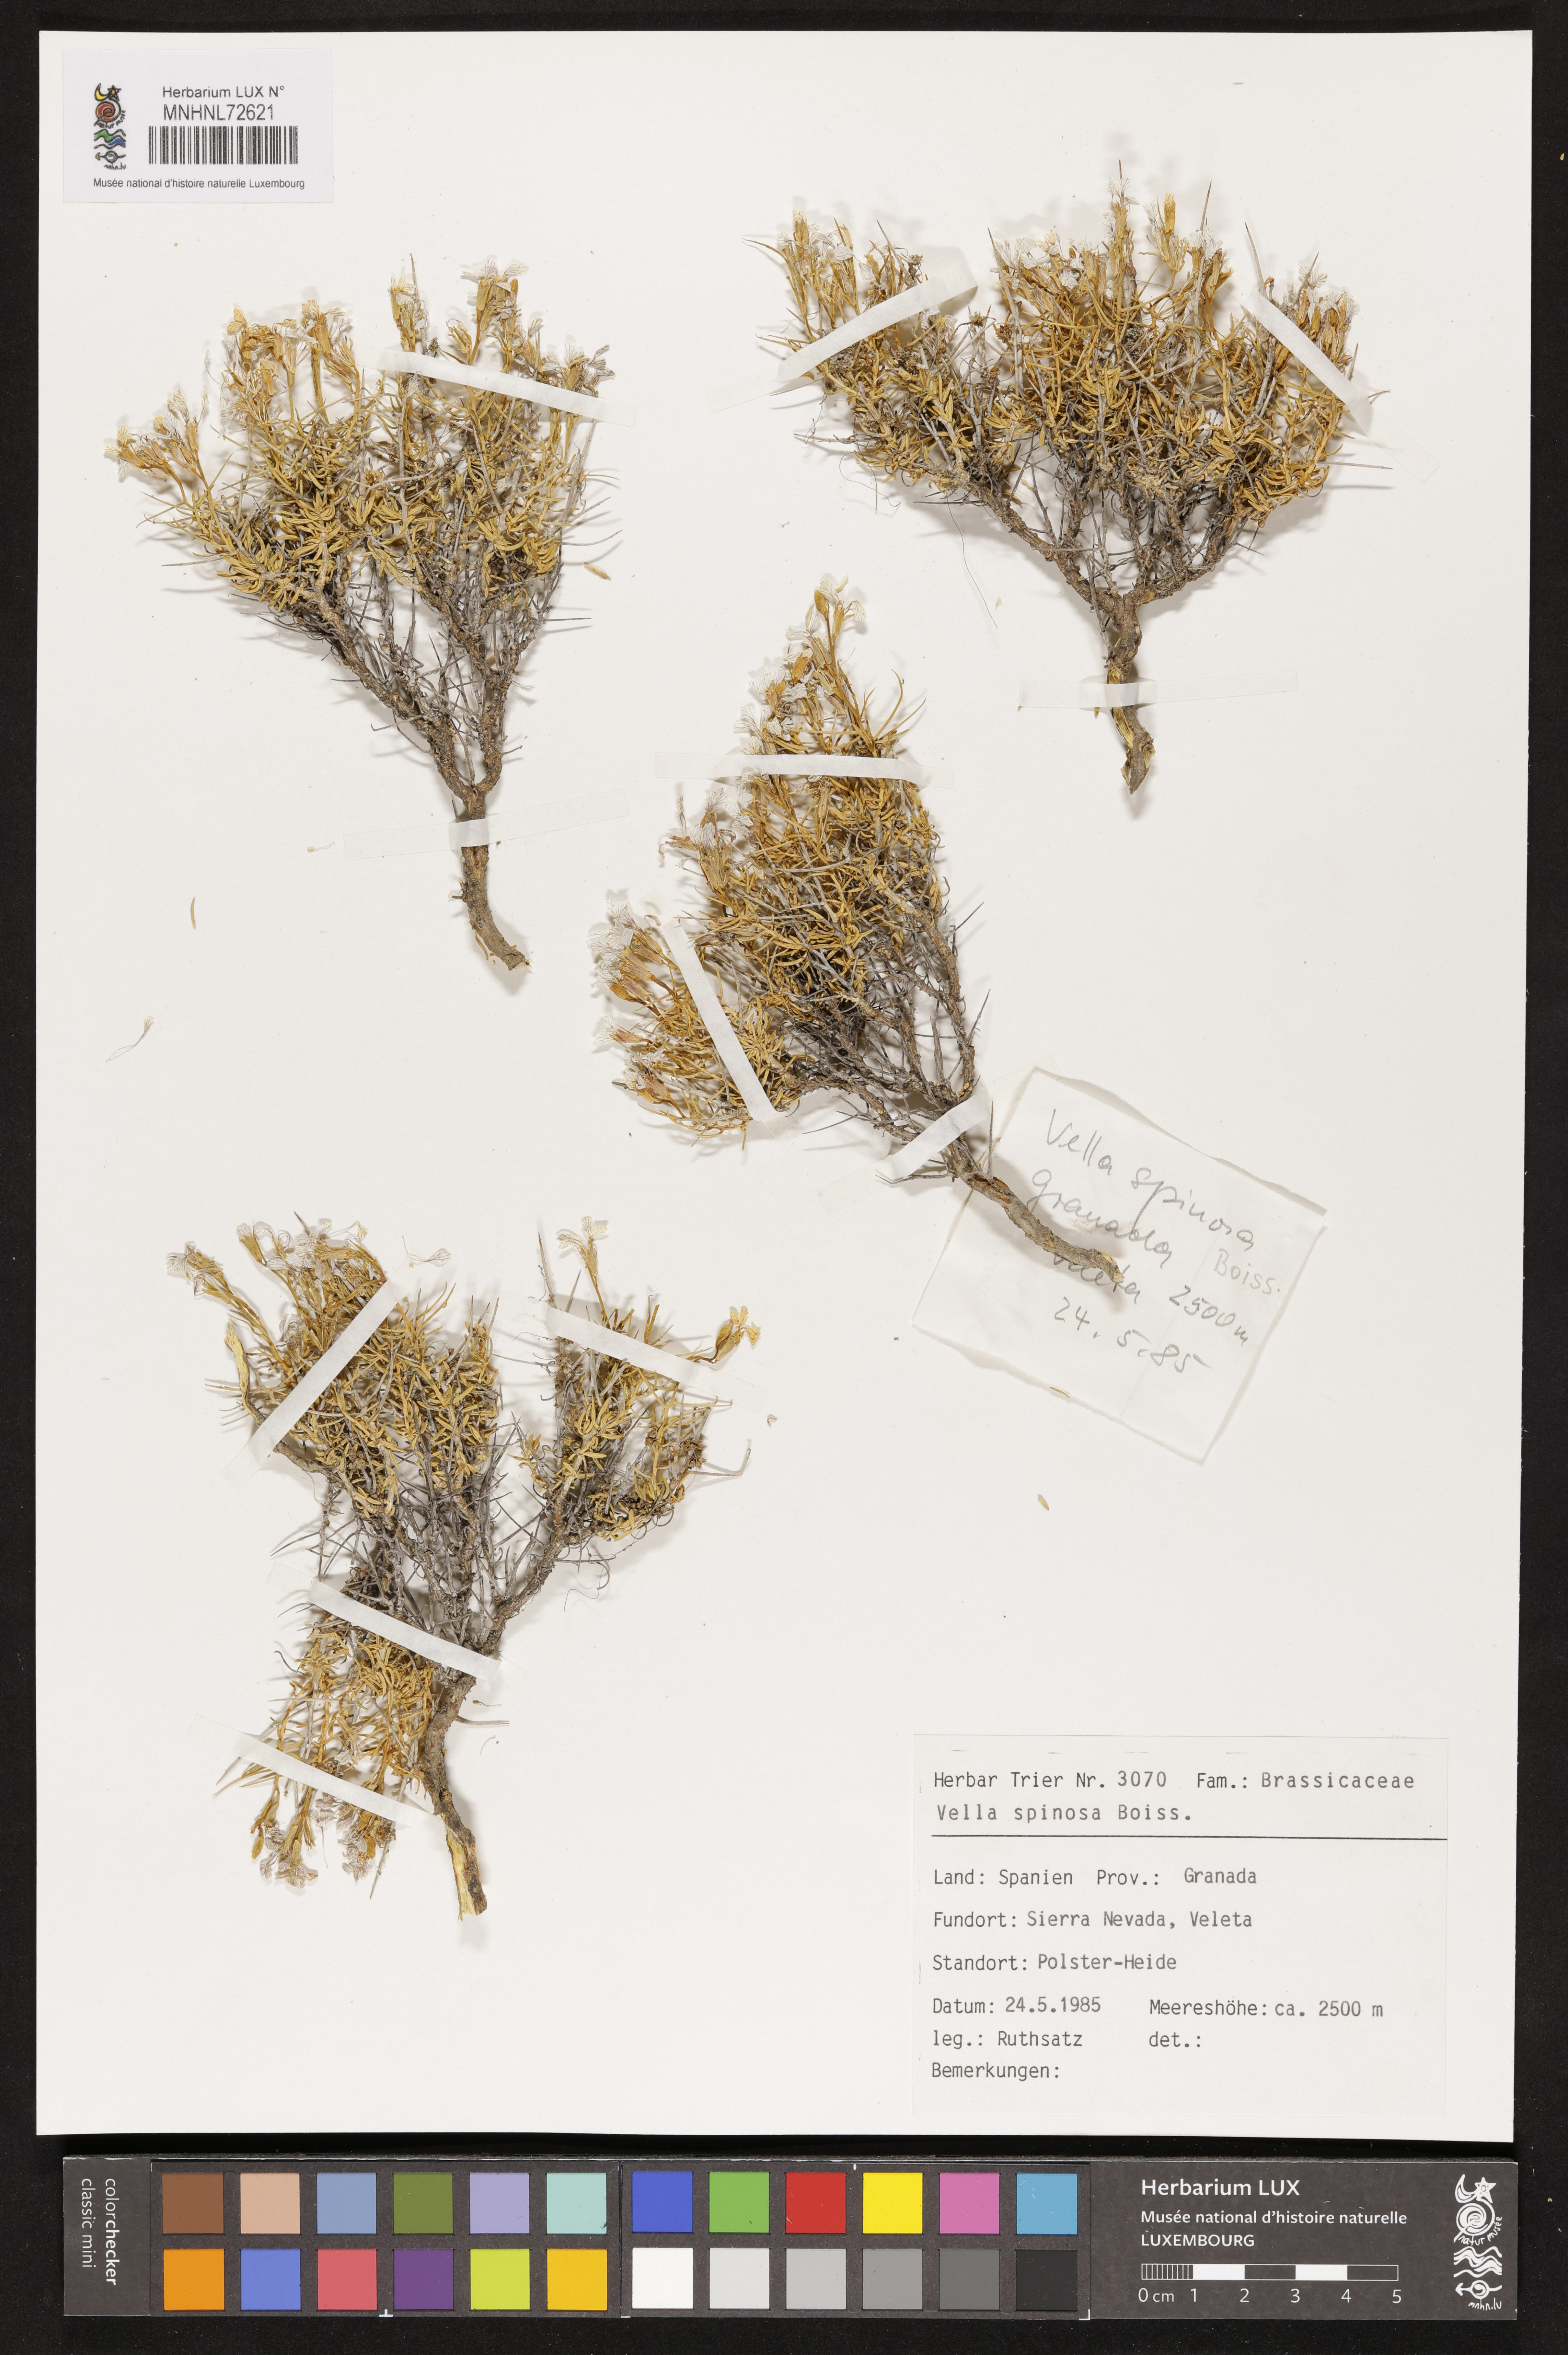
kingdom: Plantae
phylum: Tracheophyta
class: Magnoliopsida
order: Brassicales
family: Brassicaceae
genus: Vella
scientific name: Vella spinosa
